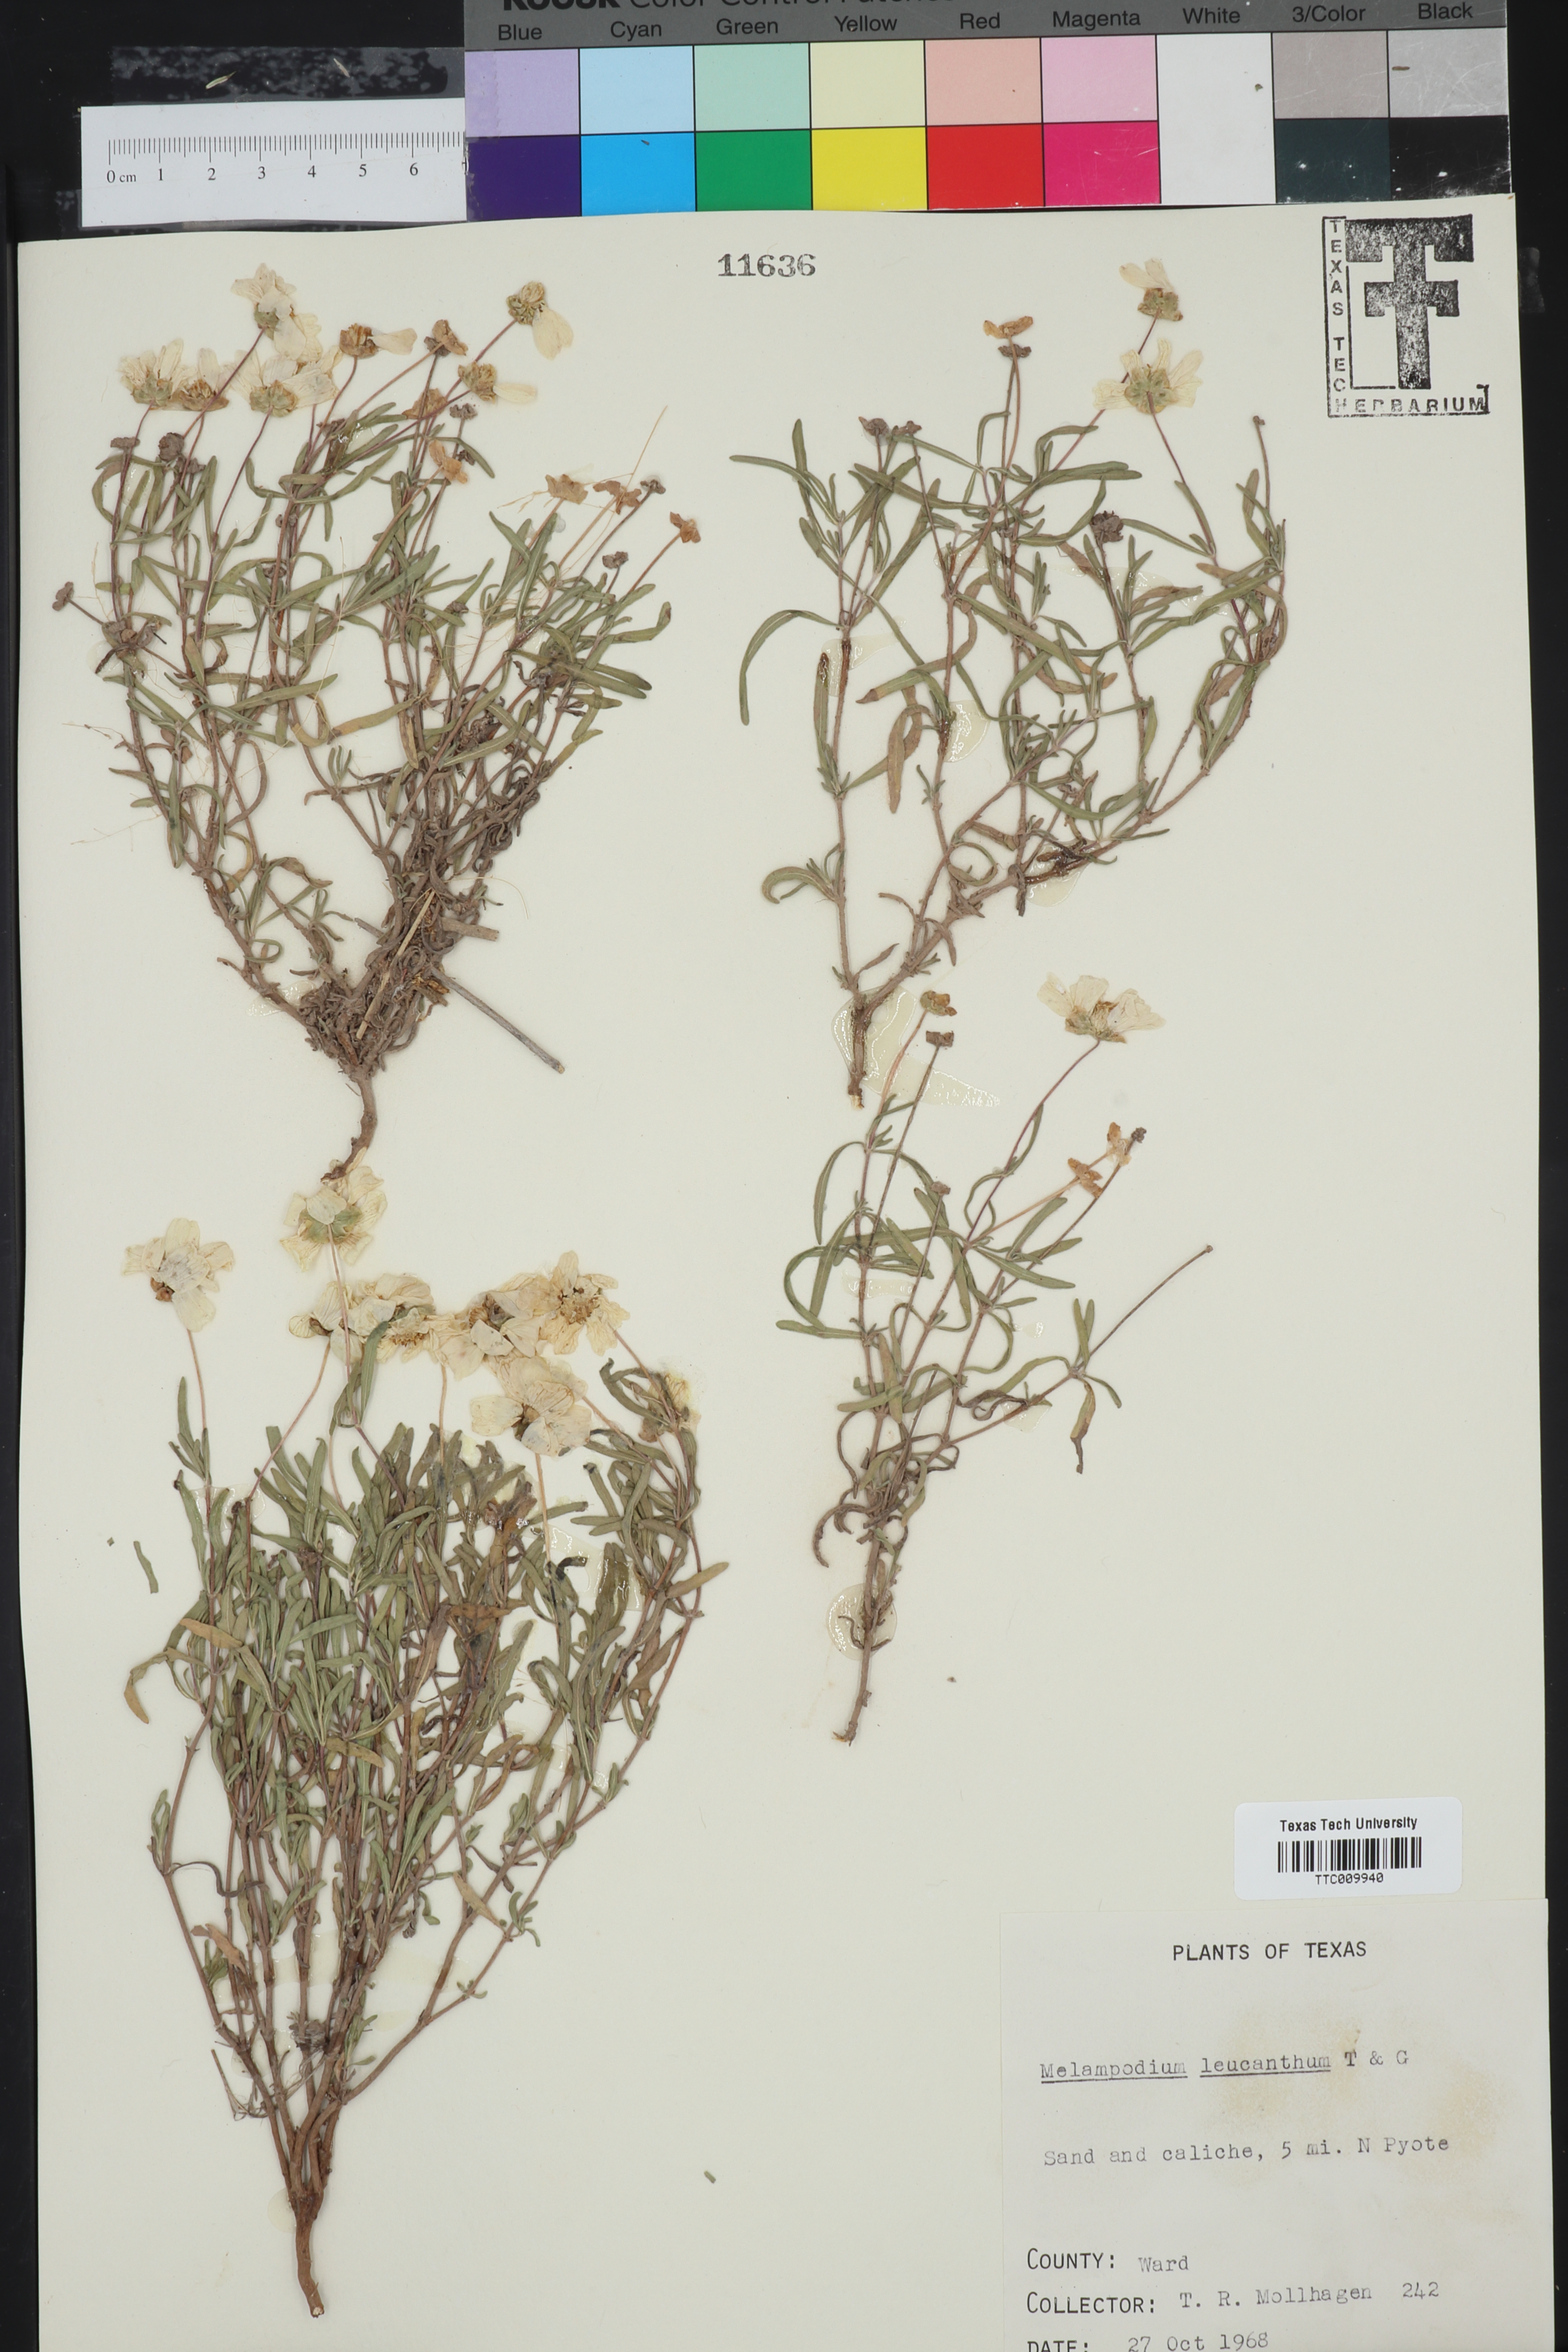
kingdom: Plantae
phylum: Tracheophyta
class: Magnoliopsida
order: Asterales
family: Asteraceae
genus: Melampodium
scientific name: Melampodium leucanthum
